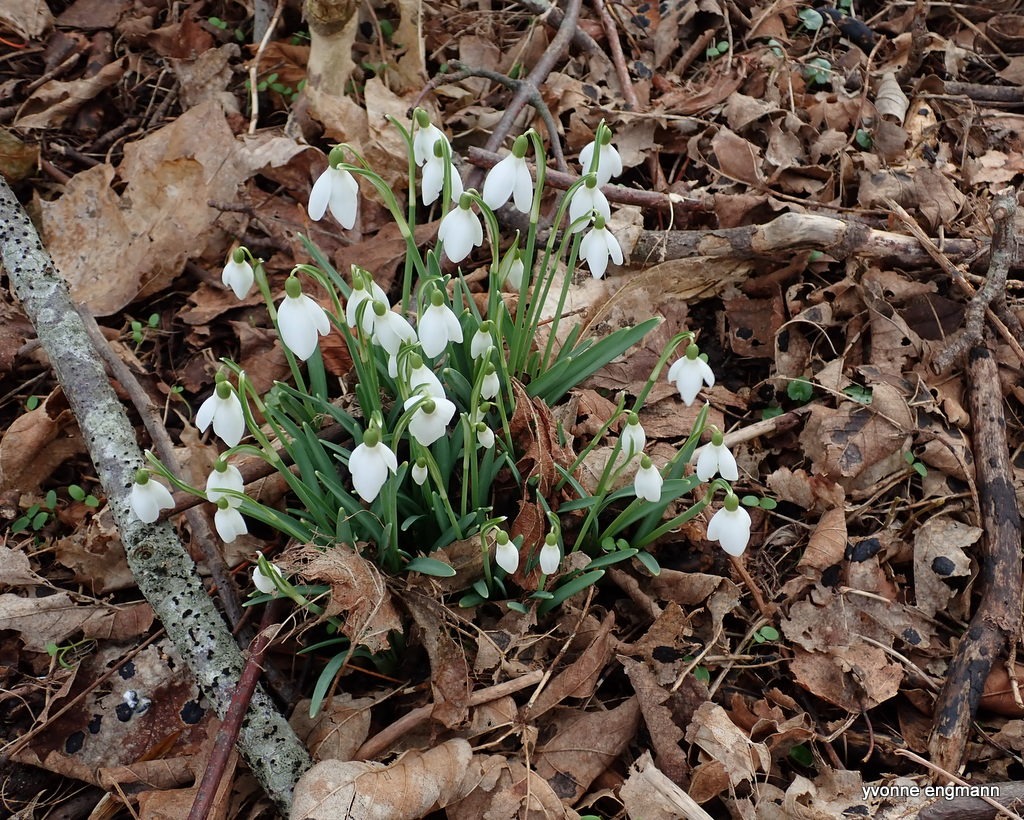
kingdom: Plantae
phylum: Tracheophyta
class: Liliopsida
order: Asparagales
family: Amaryllidaceae
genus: Galanthus
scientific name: Galanthus nivalis
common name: Vintergæk
